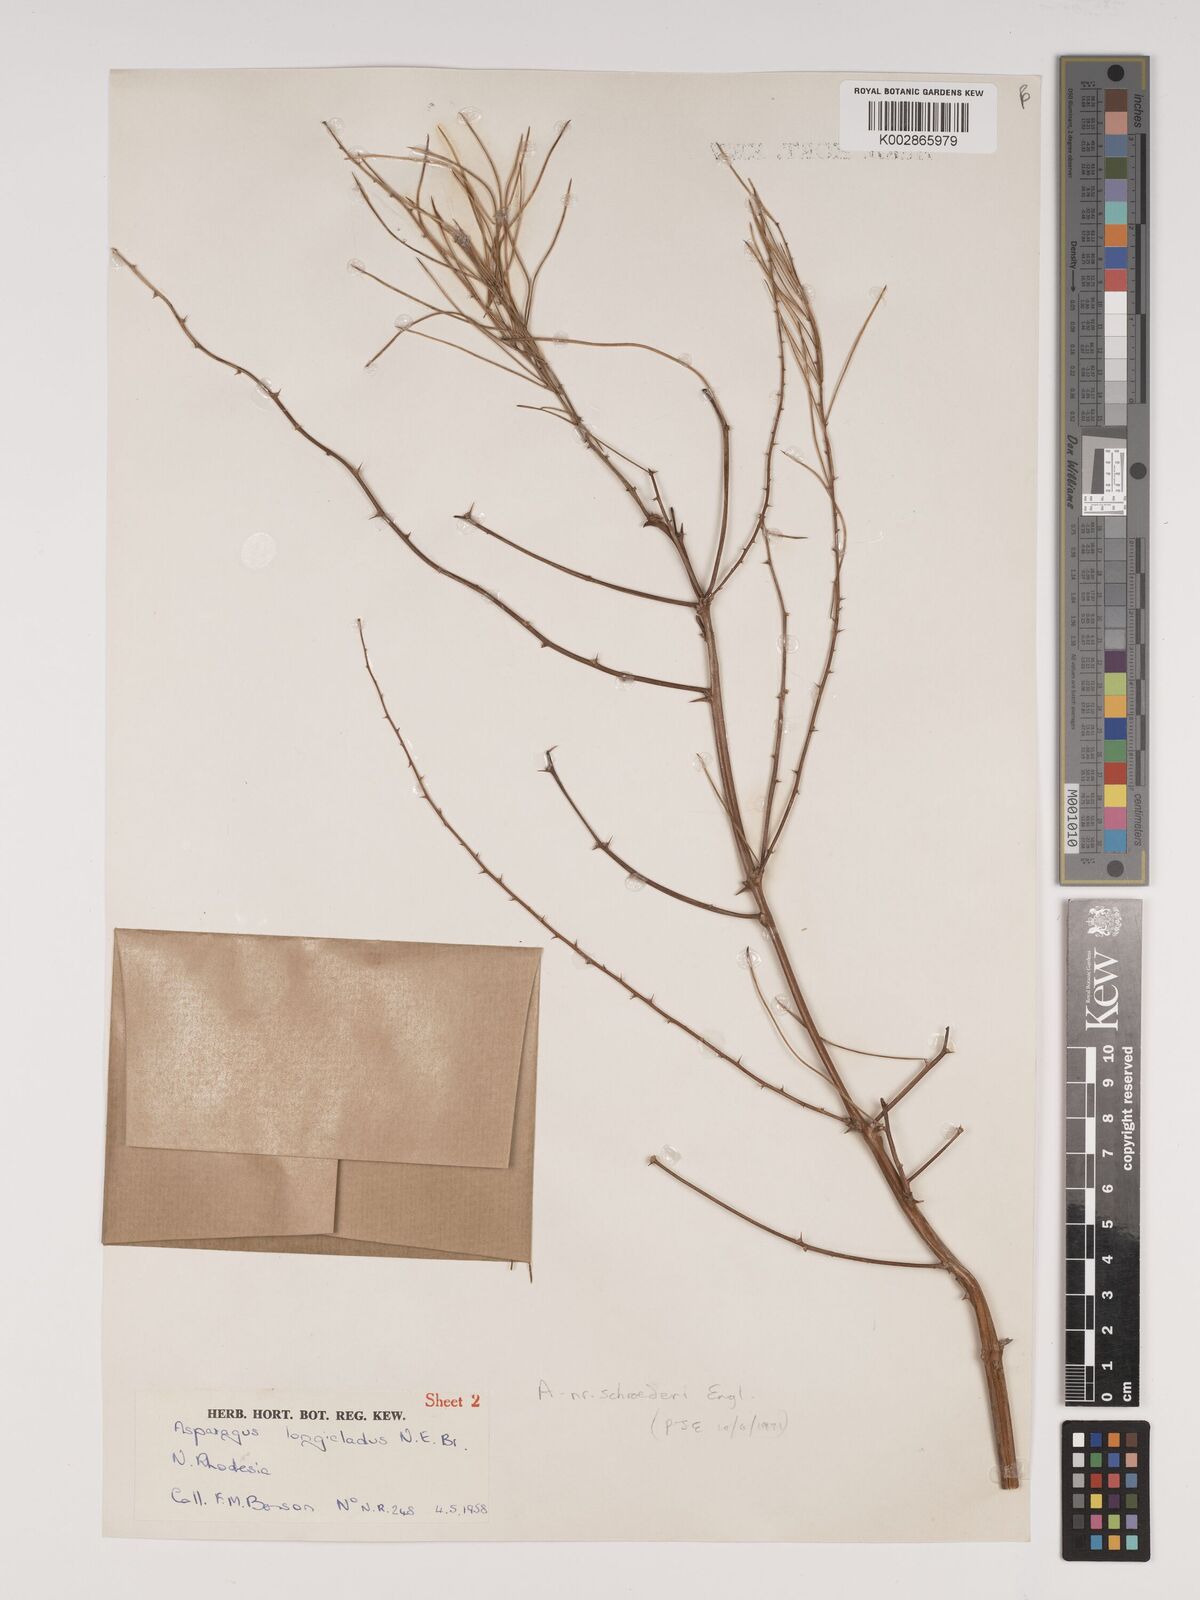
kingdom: Plantae
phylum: Tracheophyta
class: Liliopsida
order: Asparagales
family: Asparagaceae
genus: Asparagus
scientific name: Asparagus schroederi
